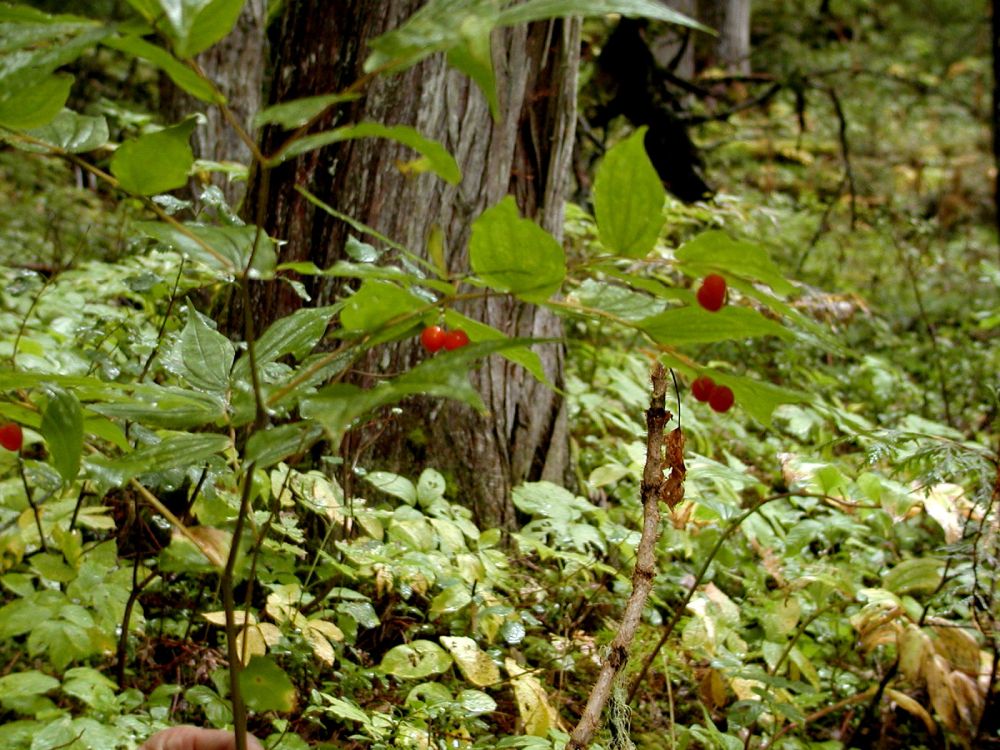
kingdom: Plantae
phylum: Tracheophyta
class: Liliopsida
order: Liliales
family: Liliaceae
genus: Prosartes
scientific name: Prosartes hookeri
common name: Fairy-bells
